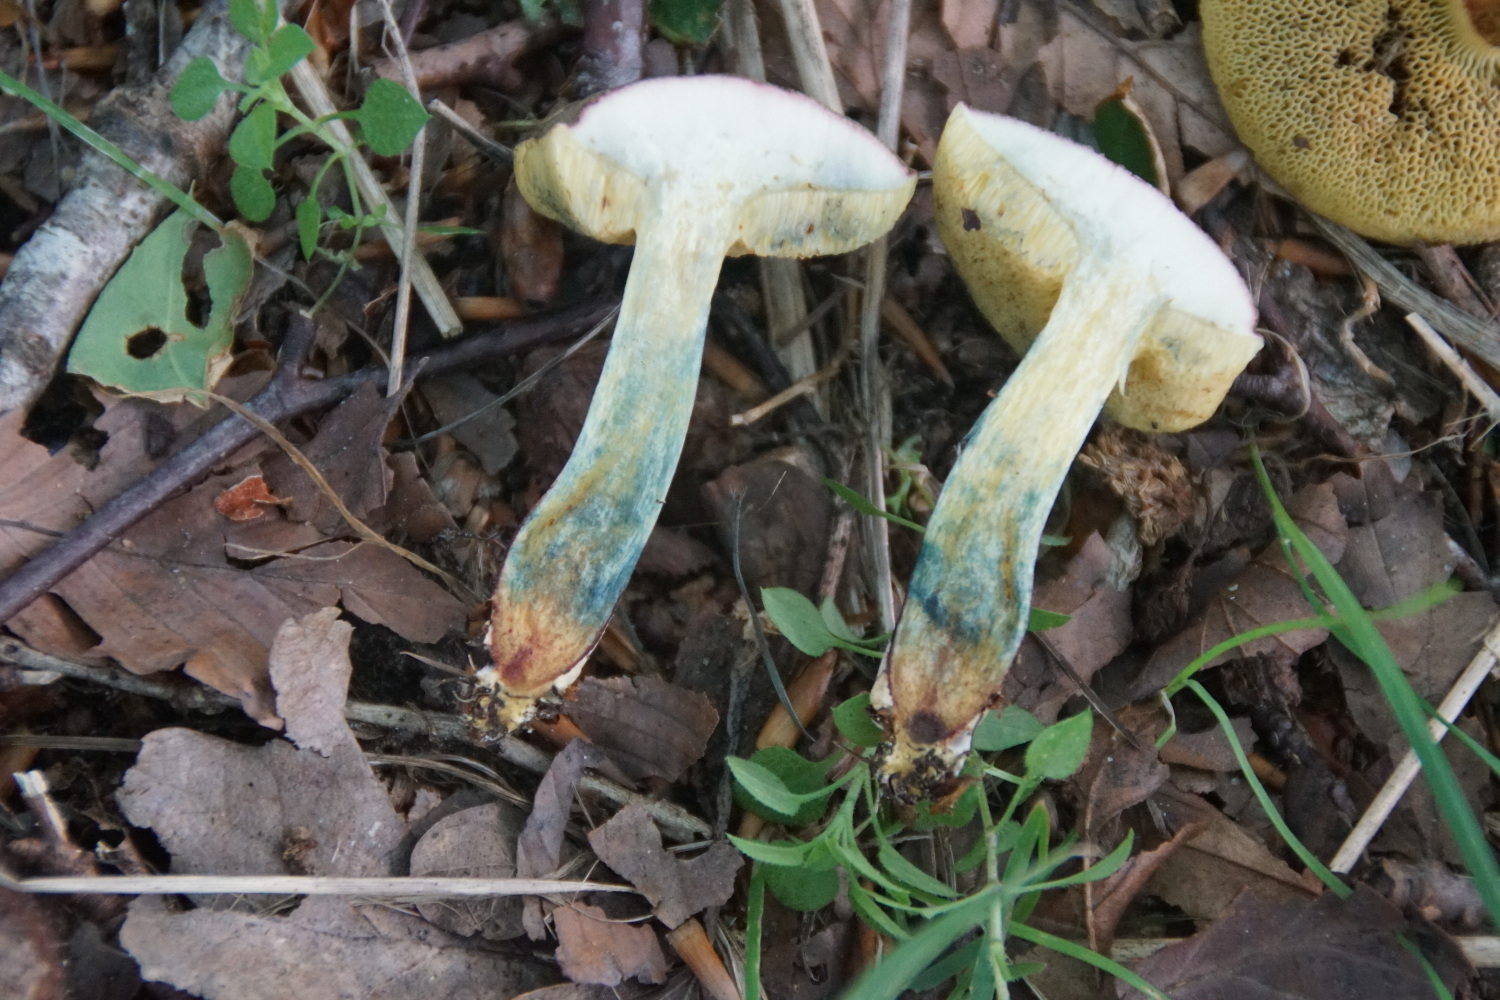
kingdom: Fungi
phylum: Basidiomycota
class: Agaricomycetes
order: Boletales
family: Boletaceae
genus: Xerocomellus
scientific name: Xerocomellus cisalpinus
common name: finsprukken rørhat
